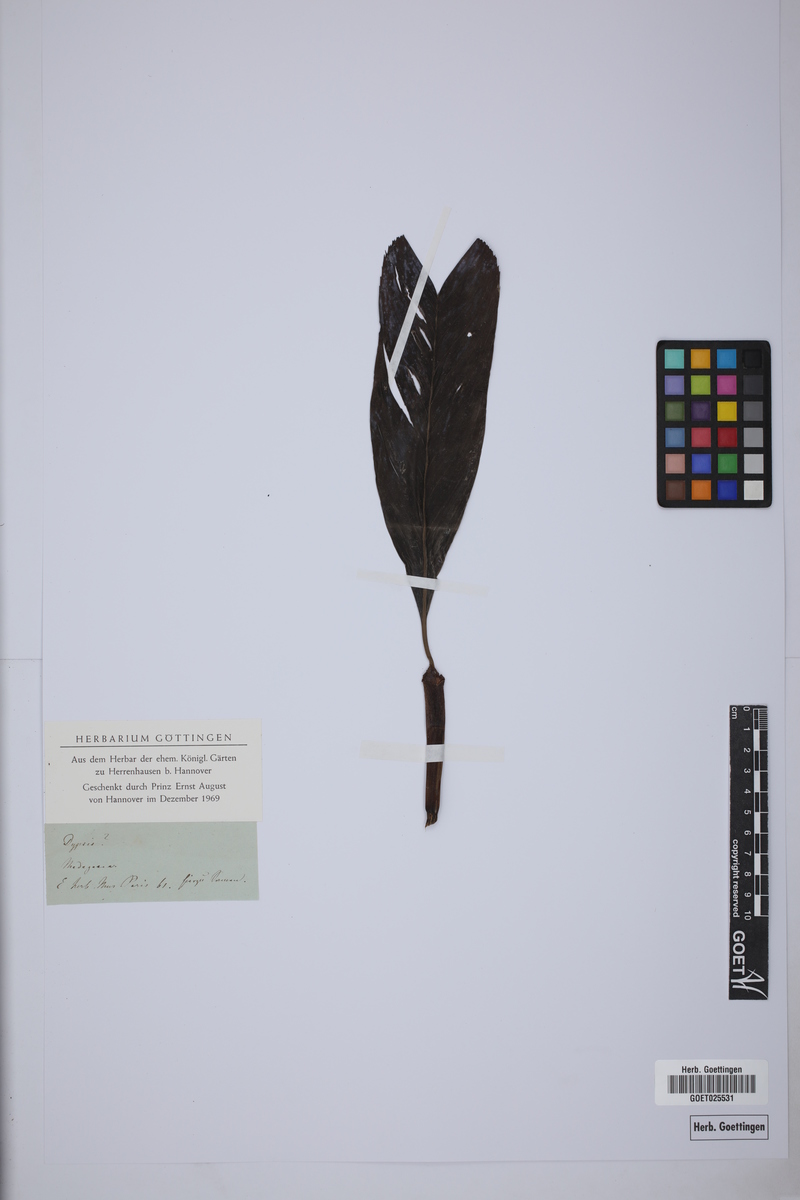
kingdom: Plantae
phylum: Tracheophyta
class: Liliopsida
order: Arecales
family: Arecaceae
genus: Dypsis
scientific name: Dypsis
